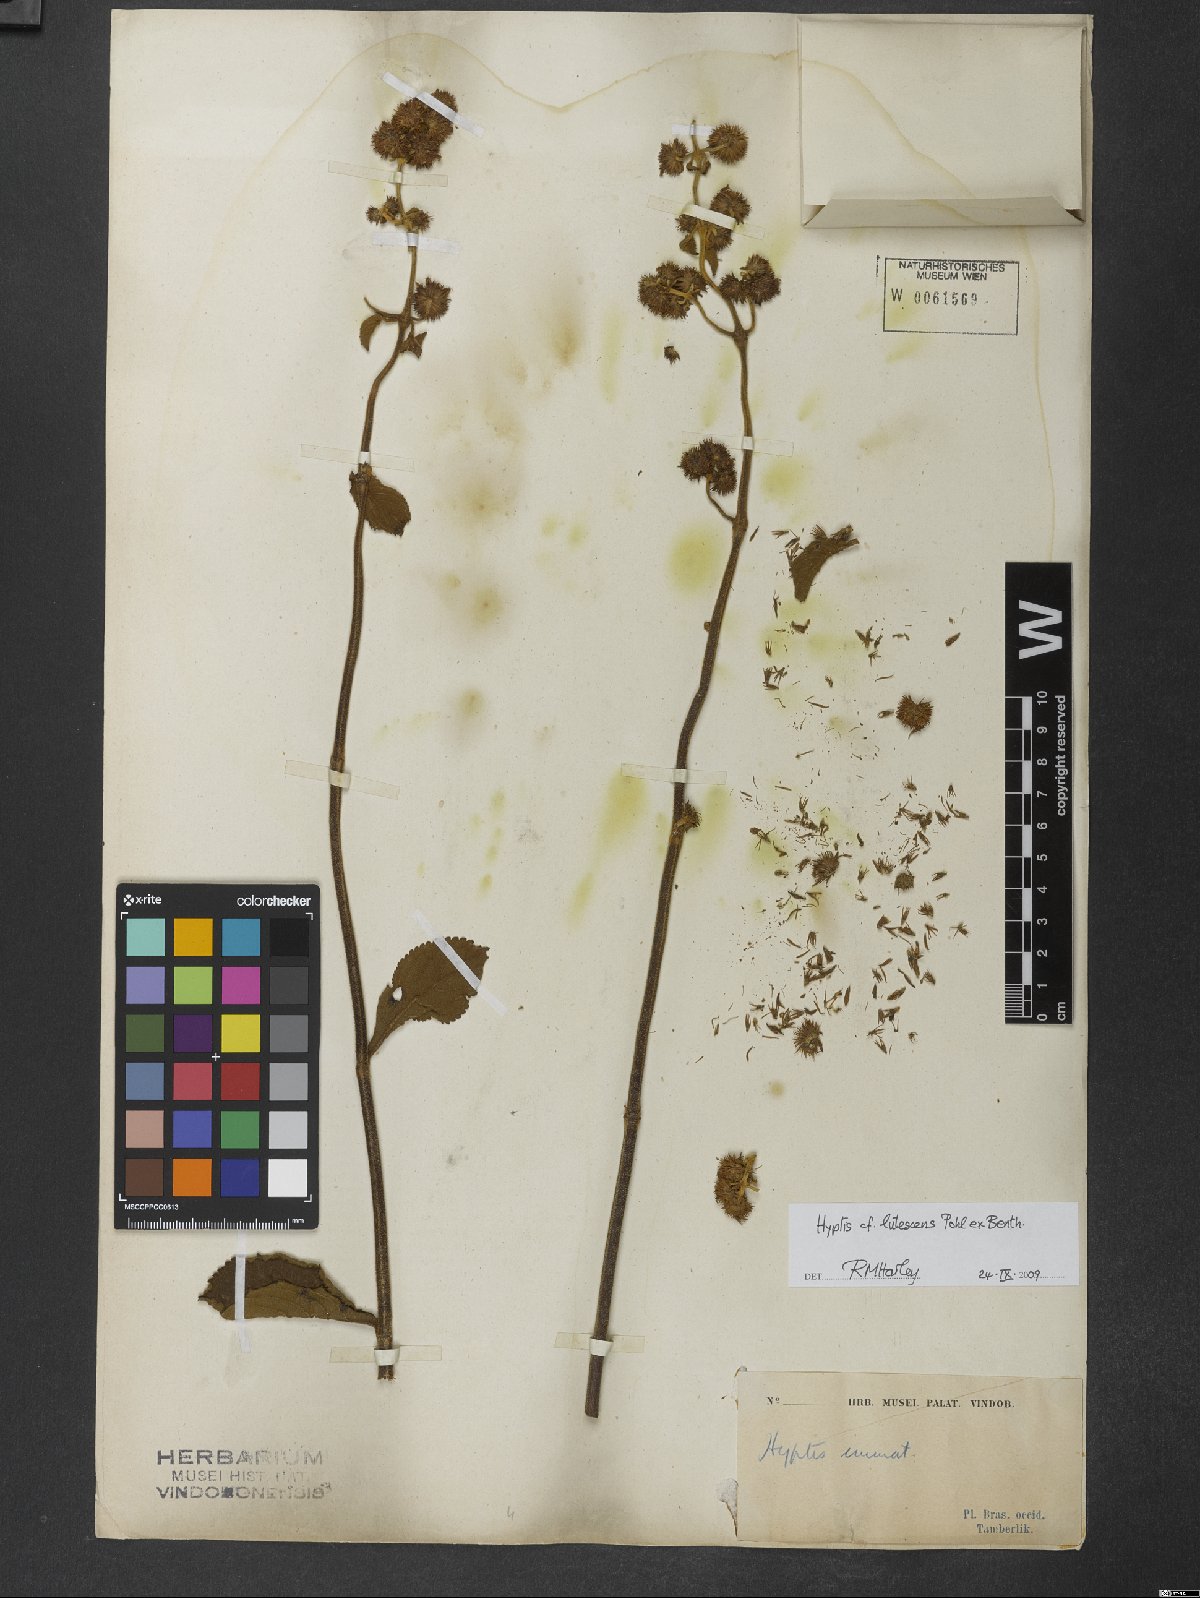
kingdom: Plantae
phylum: Tracheophyta
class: Magnoliopsida
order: Lamiales
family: Lamiaceae
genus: Hyptis
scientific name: Hyptis lutescens
